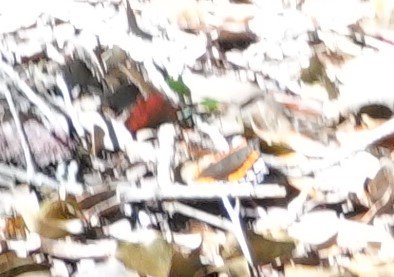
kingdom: Animalia
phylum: Arthropoda
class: Insecta
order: Lepidoptera
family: Nymphalidae
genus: Vanessa
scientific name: Vanessa atalanta
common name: Red Admiral
